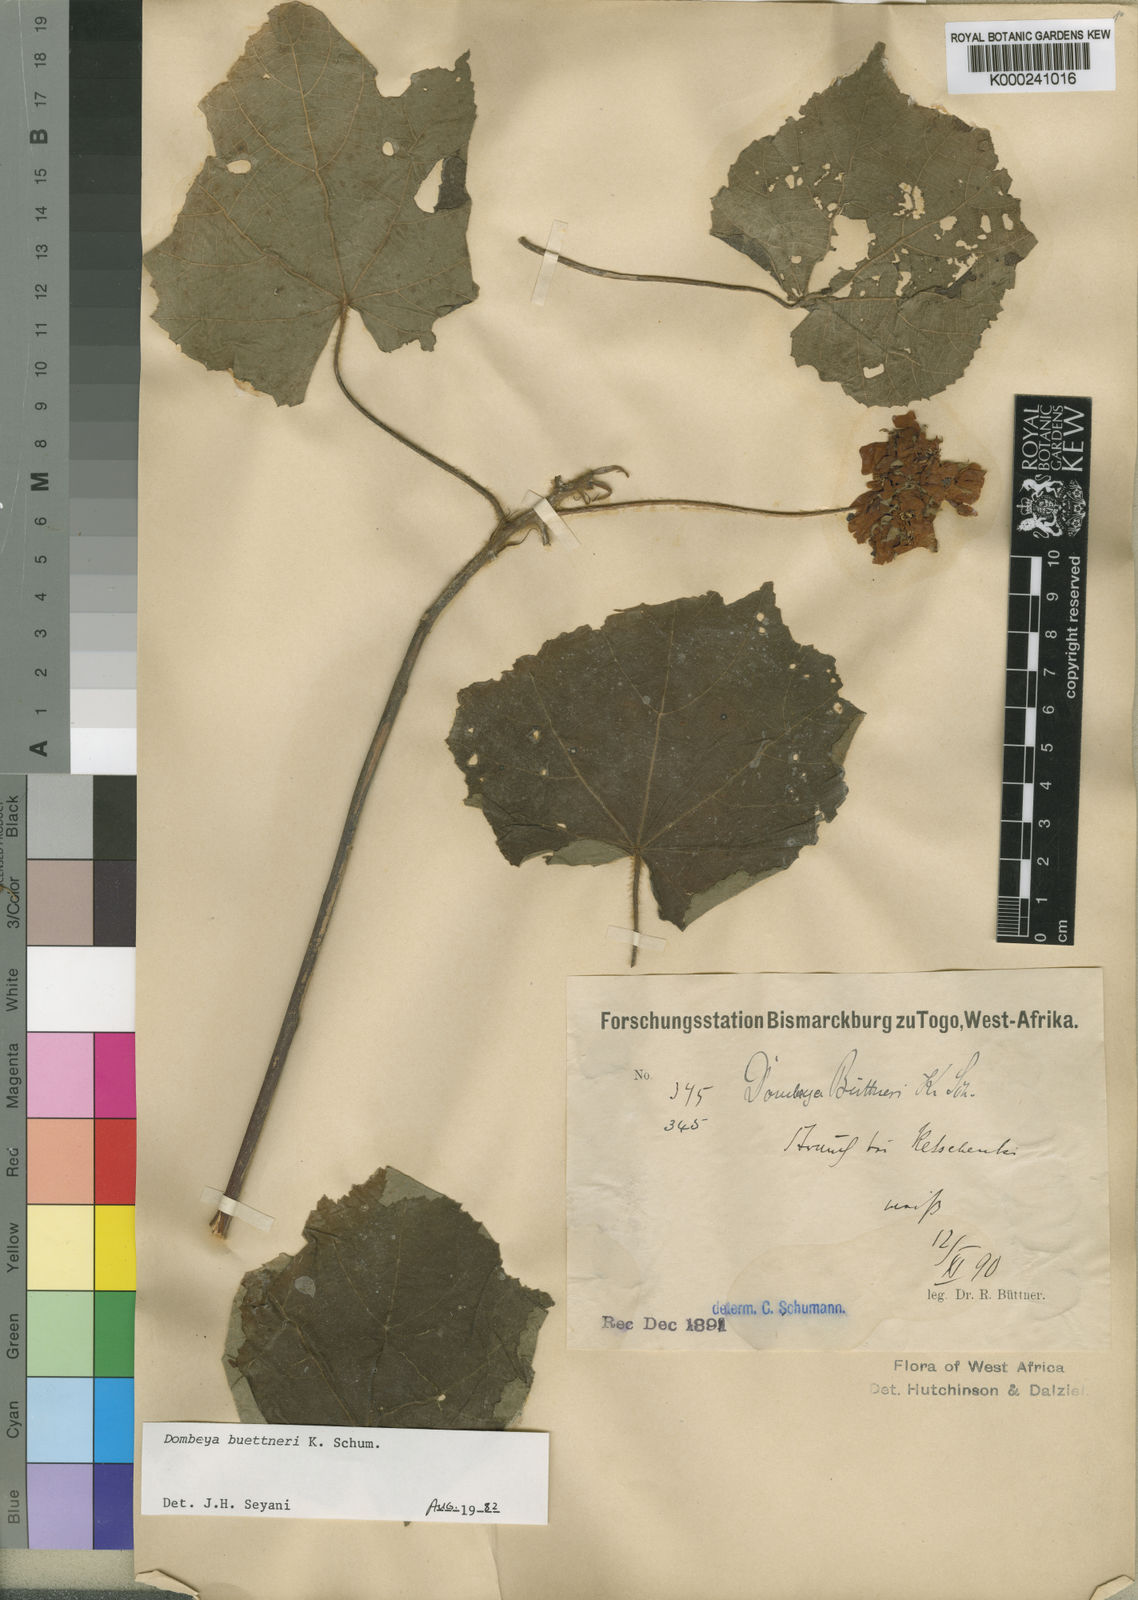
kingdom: Plantae
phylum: Tracheophyta
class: Magnoliopsida
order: Malvales
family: Malvaceae
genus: Dombeya
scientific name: Dombeya buettneri
